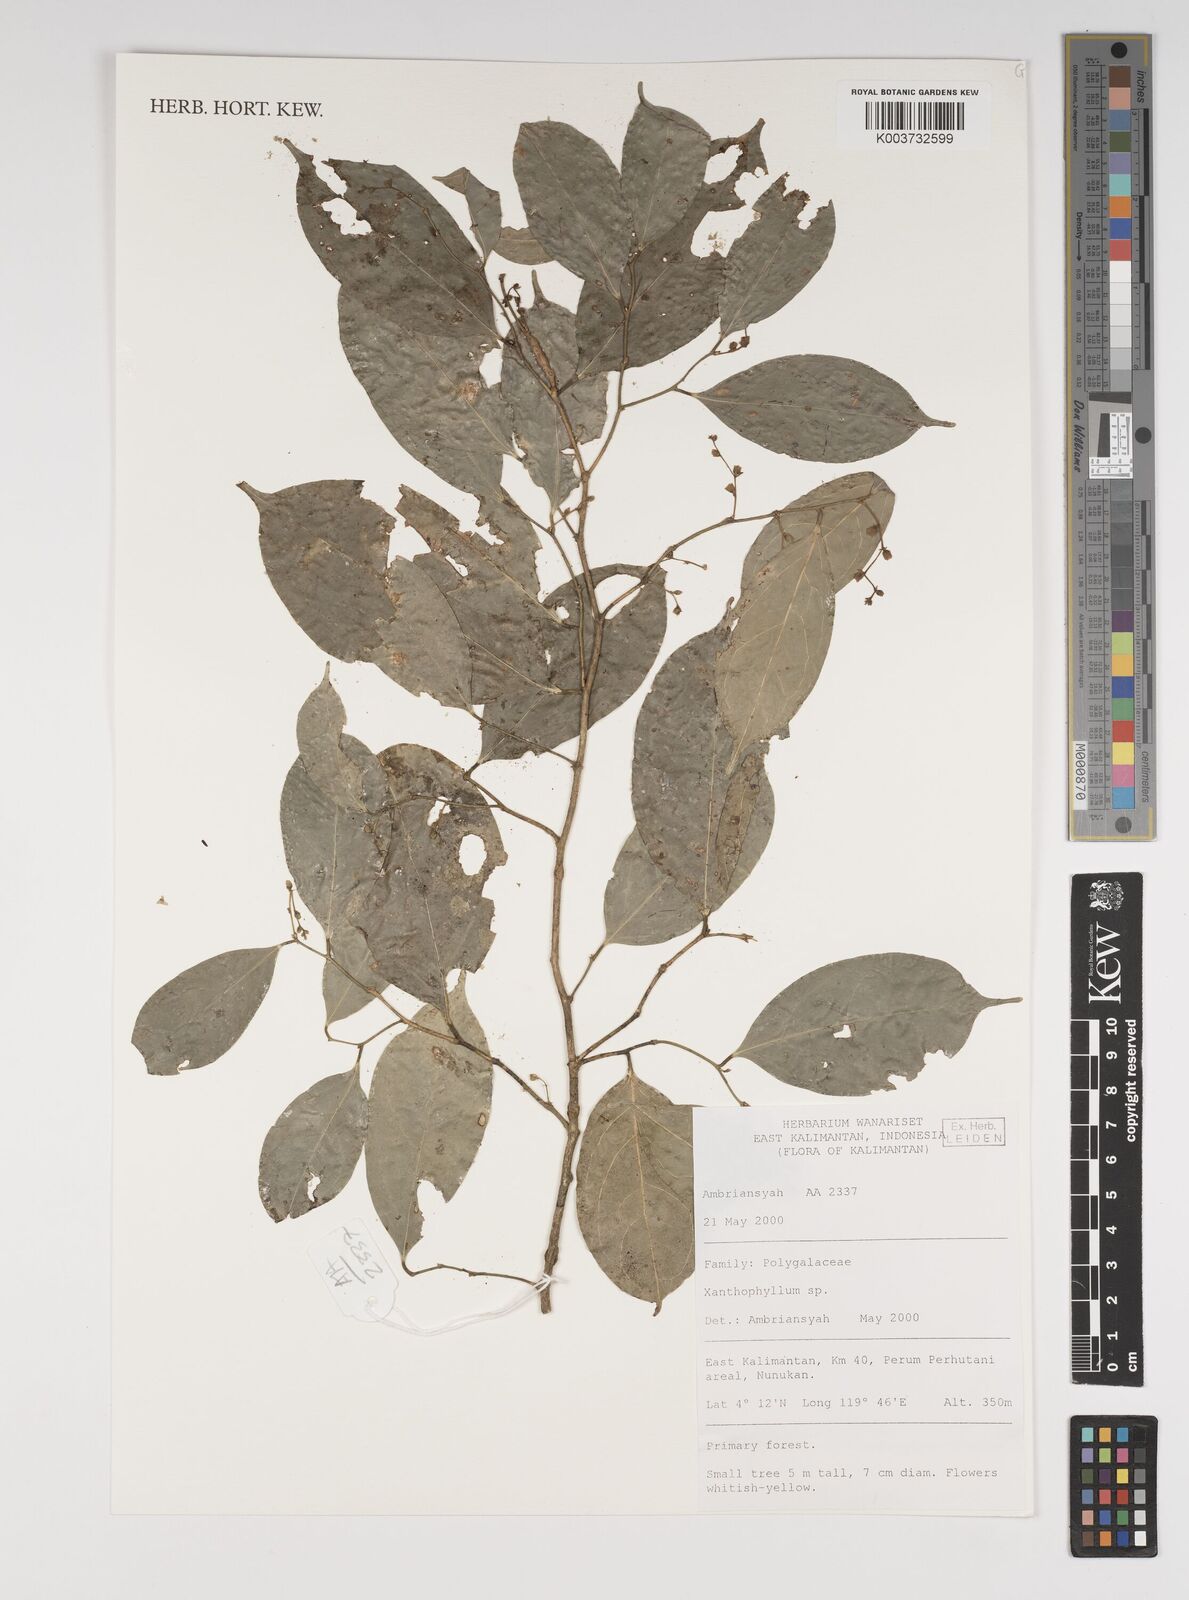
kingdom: Plantae
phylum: Tracheophyta
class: Magnoliopsida
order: Fabales
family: Polygalaceae
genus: Xanthophyllum
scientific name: Xanthophyllum
